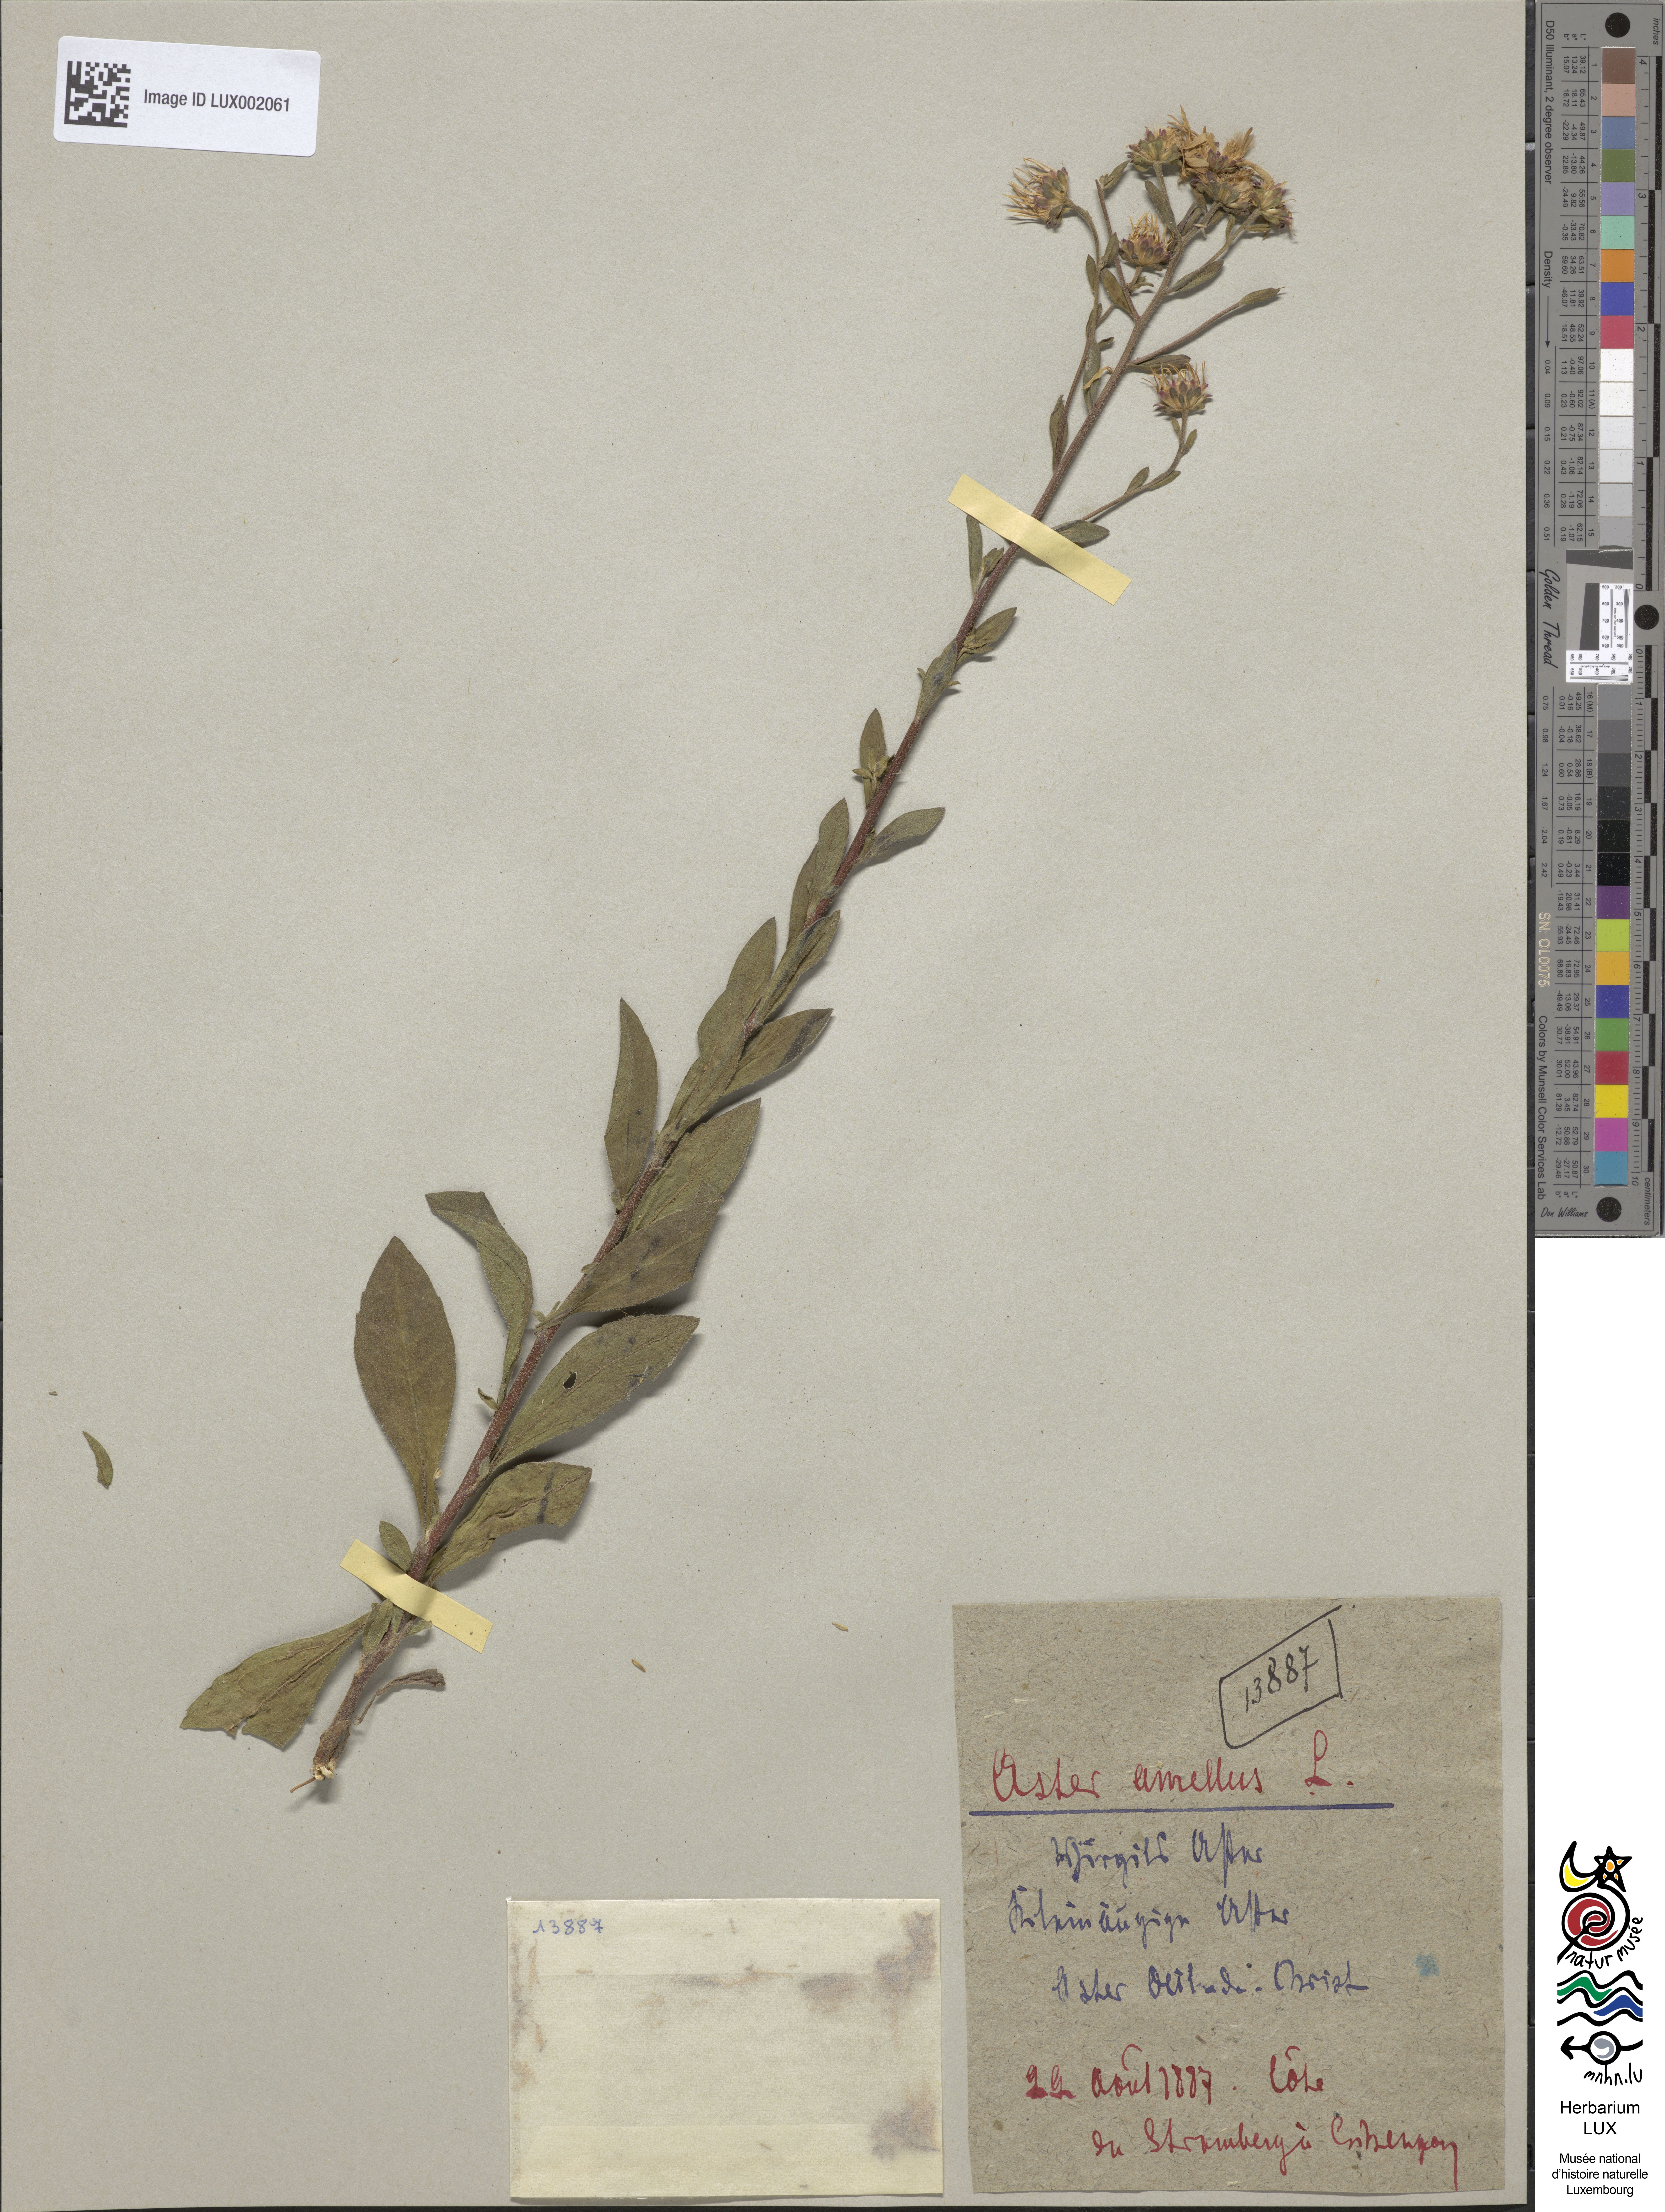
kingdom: Plantae
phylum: Tracheophyta
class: Magnoliopsida
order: Asterales
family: Asteraceae
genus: Aster
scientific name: Aster amellus
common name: European michaelmas daisy
